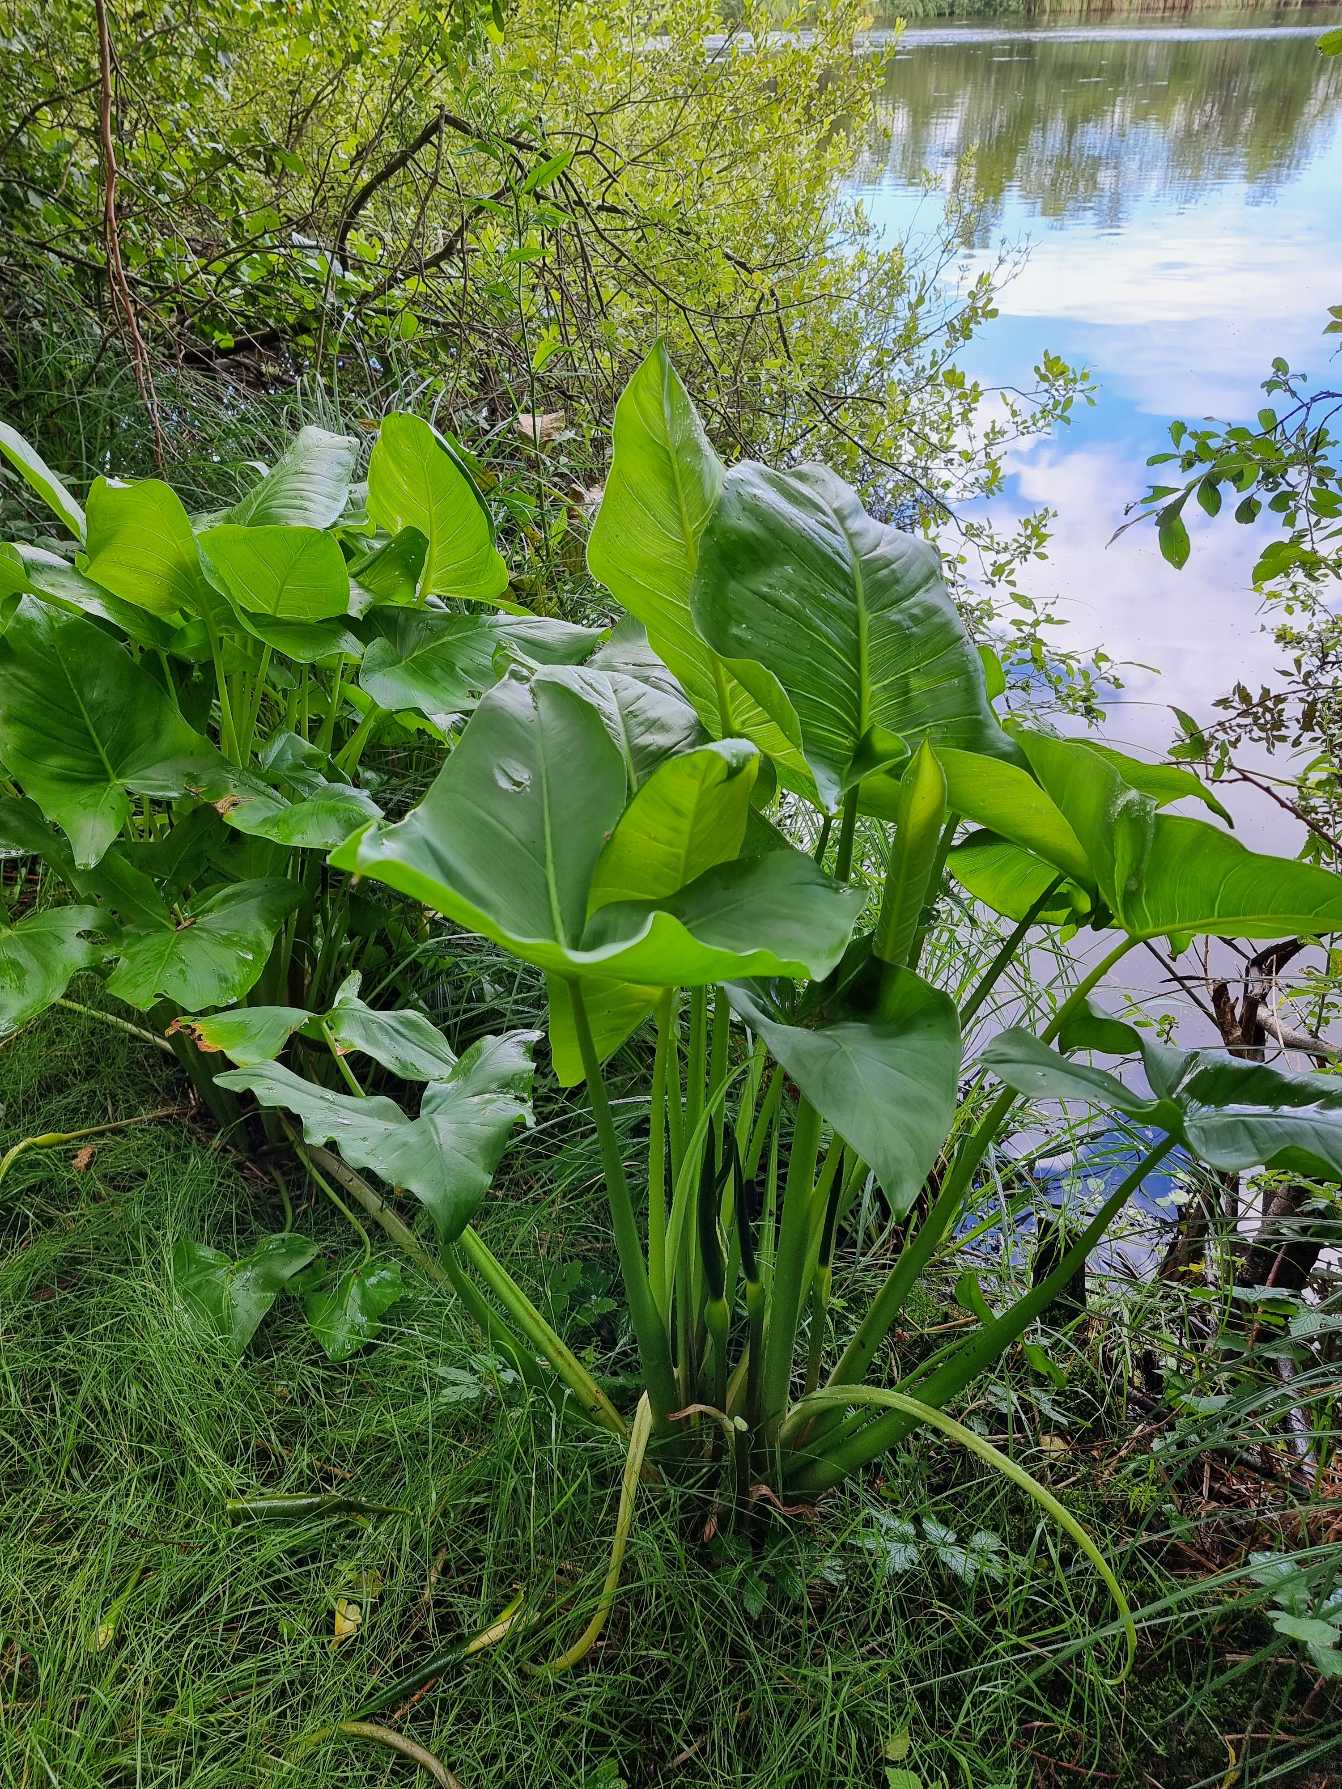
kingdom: Plantae
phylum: Tracheophyta
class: Liliopsida
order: Alismatales
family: Araceae
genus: Peltandra
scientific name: Peltandra virginica
